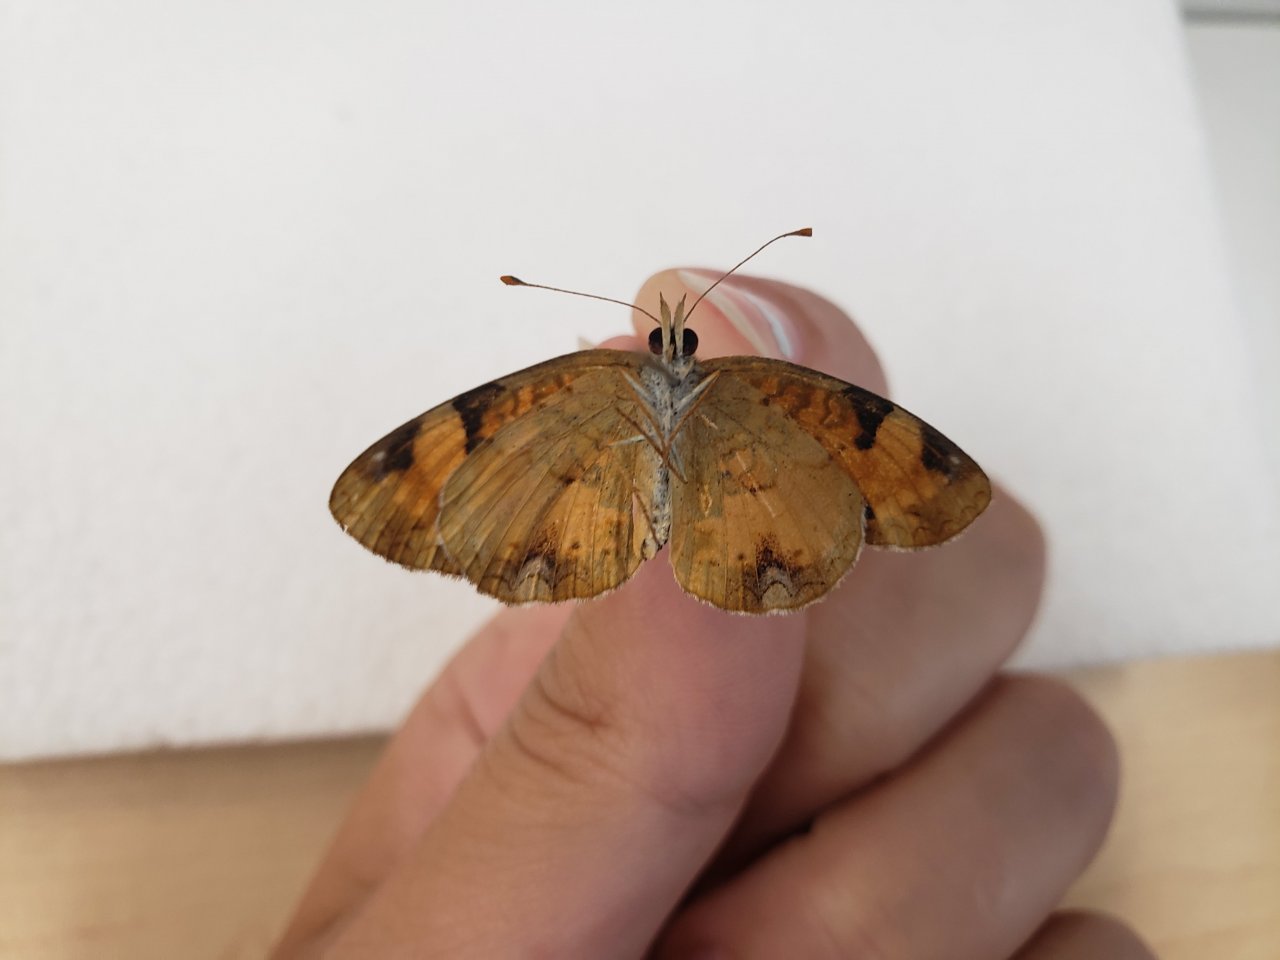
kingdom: Animalia
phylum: Arthropoda
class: Insecta
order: Lepidoptera
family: Nymphalidae
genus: Phyciodes
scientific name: Phyciodes tharos
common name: Northern Crescent
